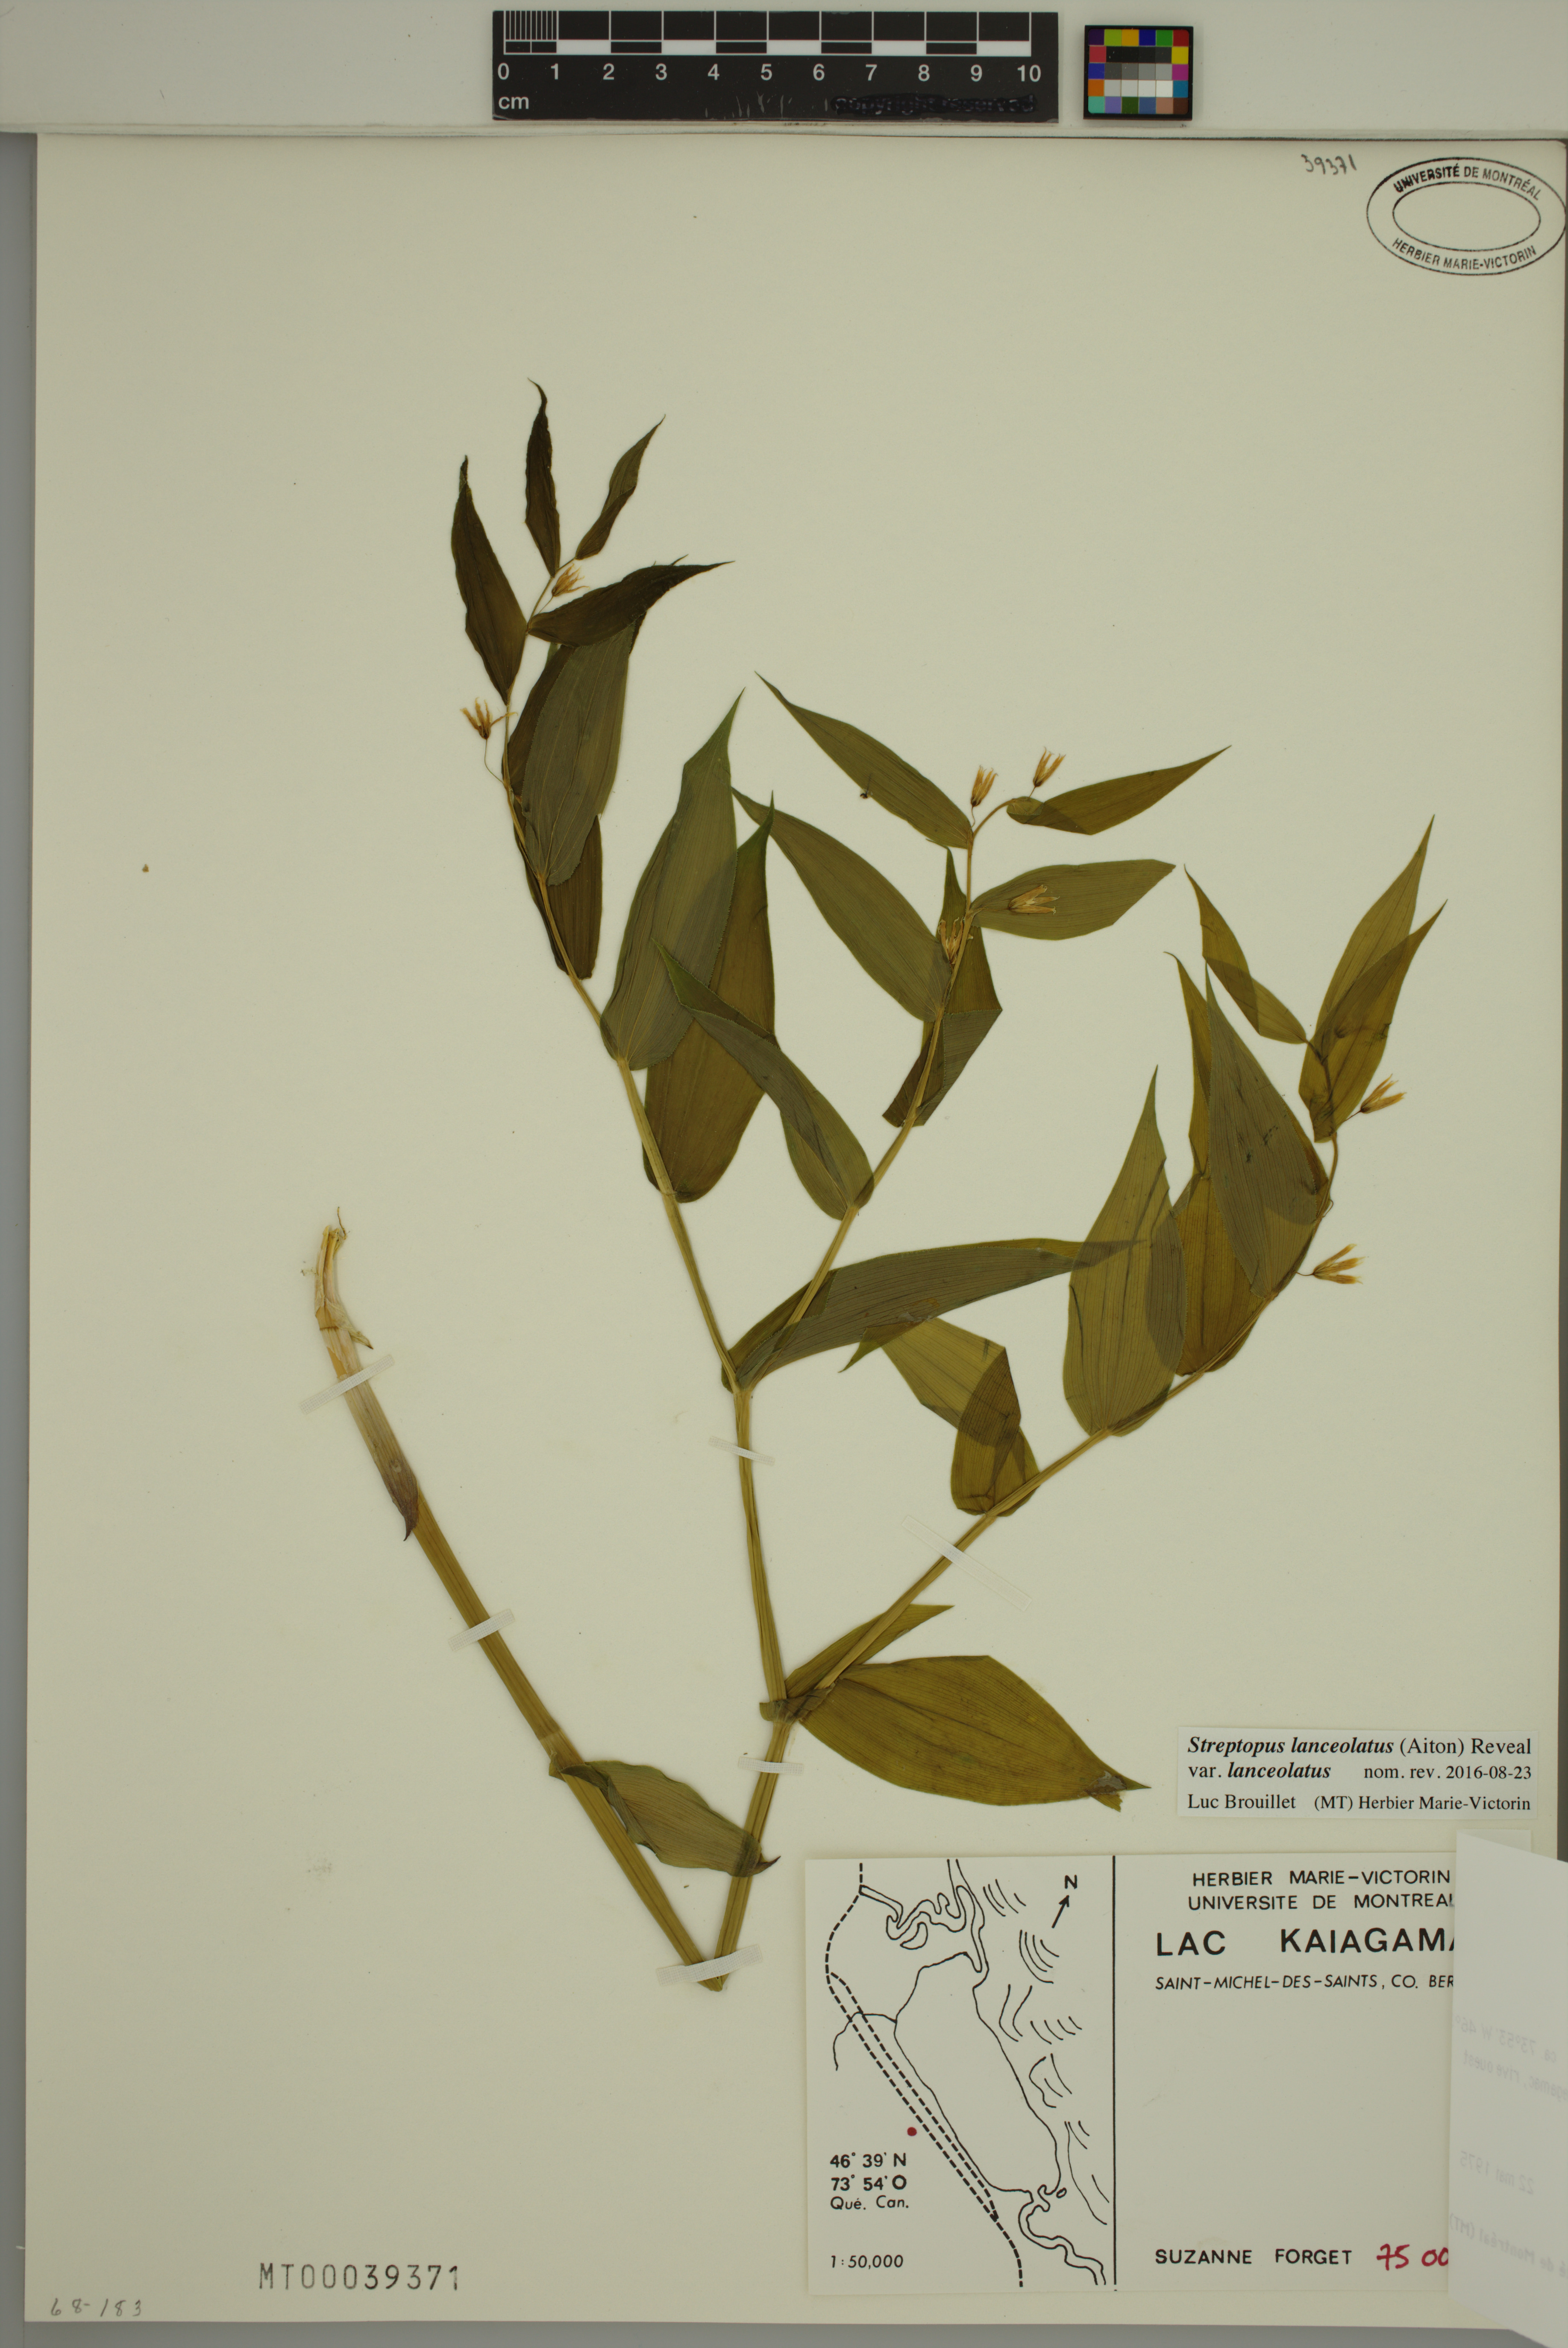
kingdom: Plantae
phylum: Tracheophyta
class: Liliopsida
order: Liliales
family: Liliaceae
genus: Streptopus
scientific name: Streptopus lanceolatus
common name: Rose mandarin
